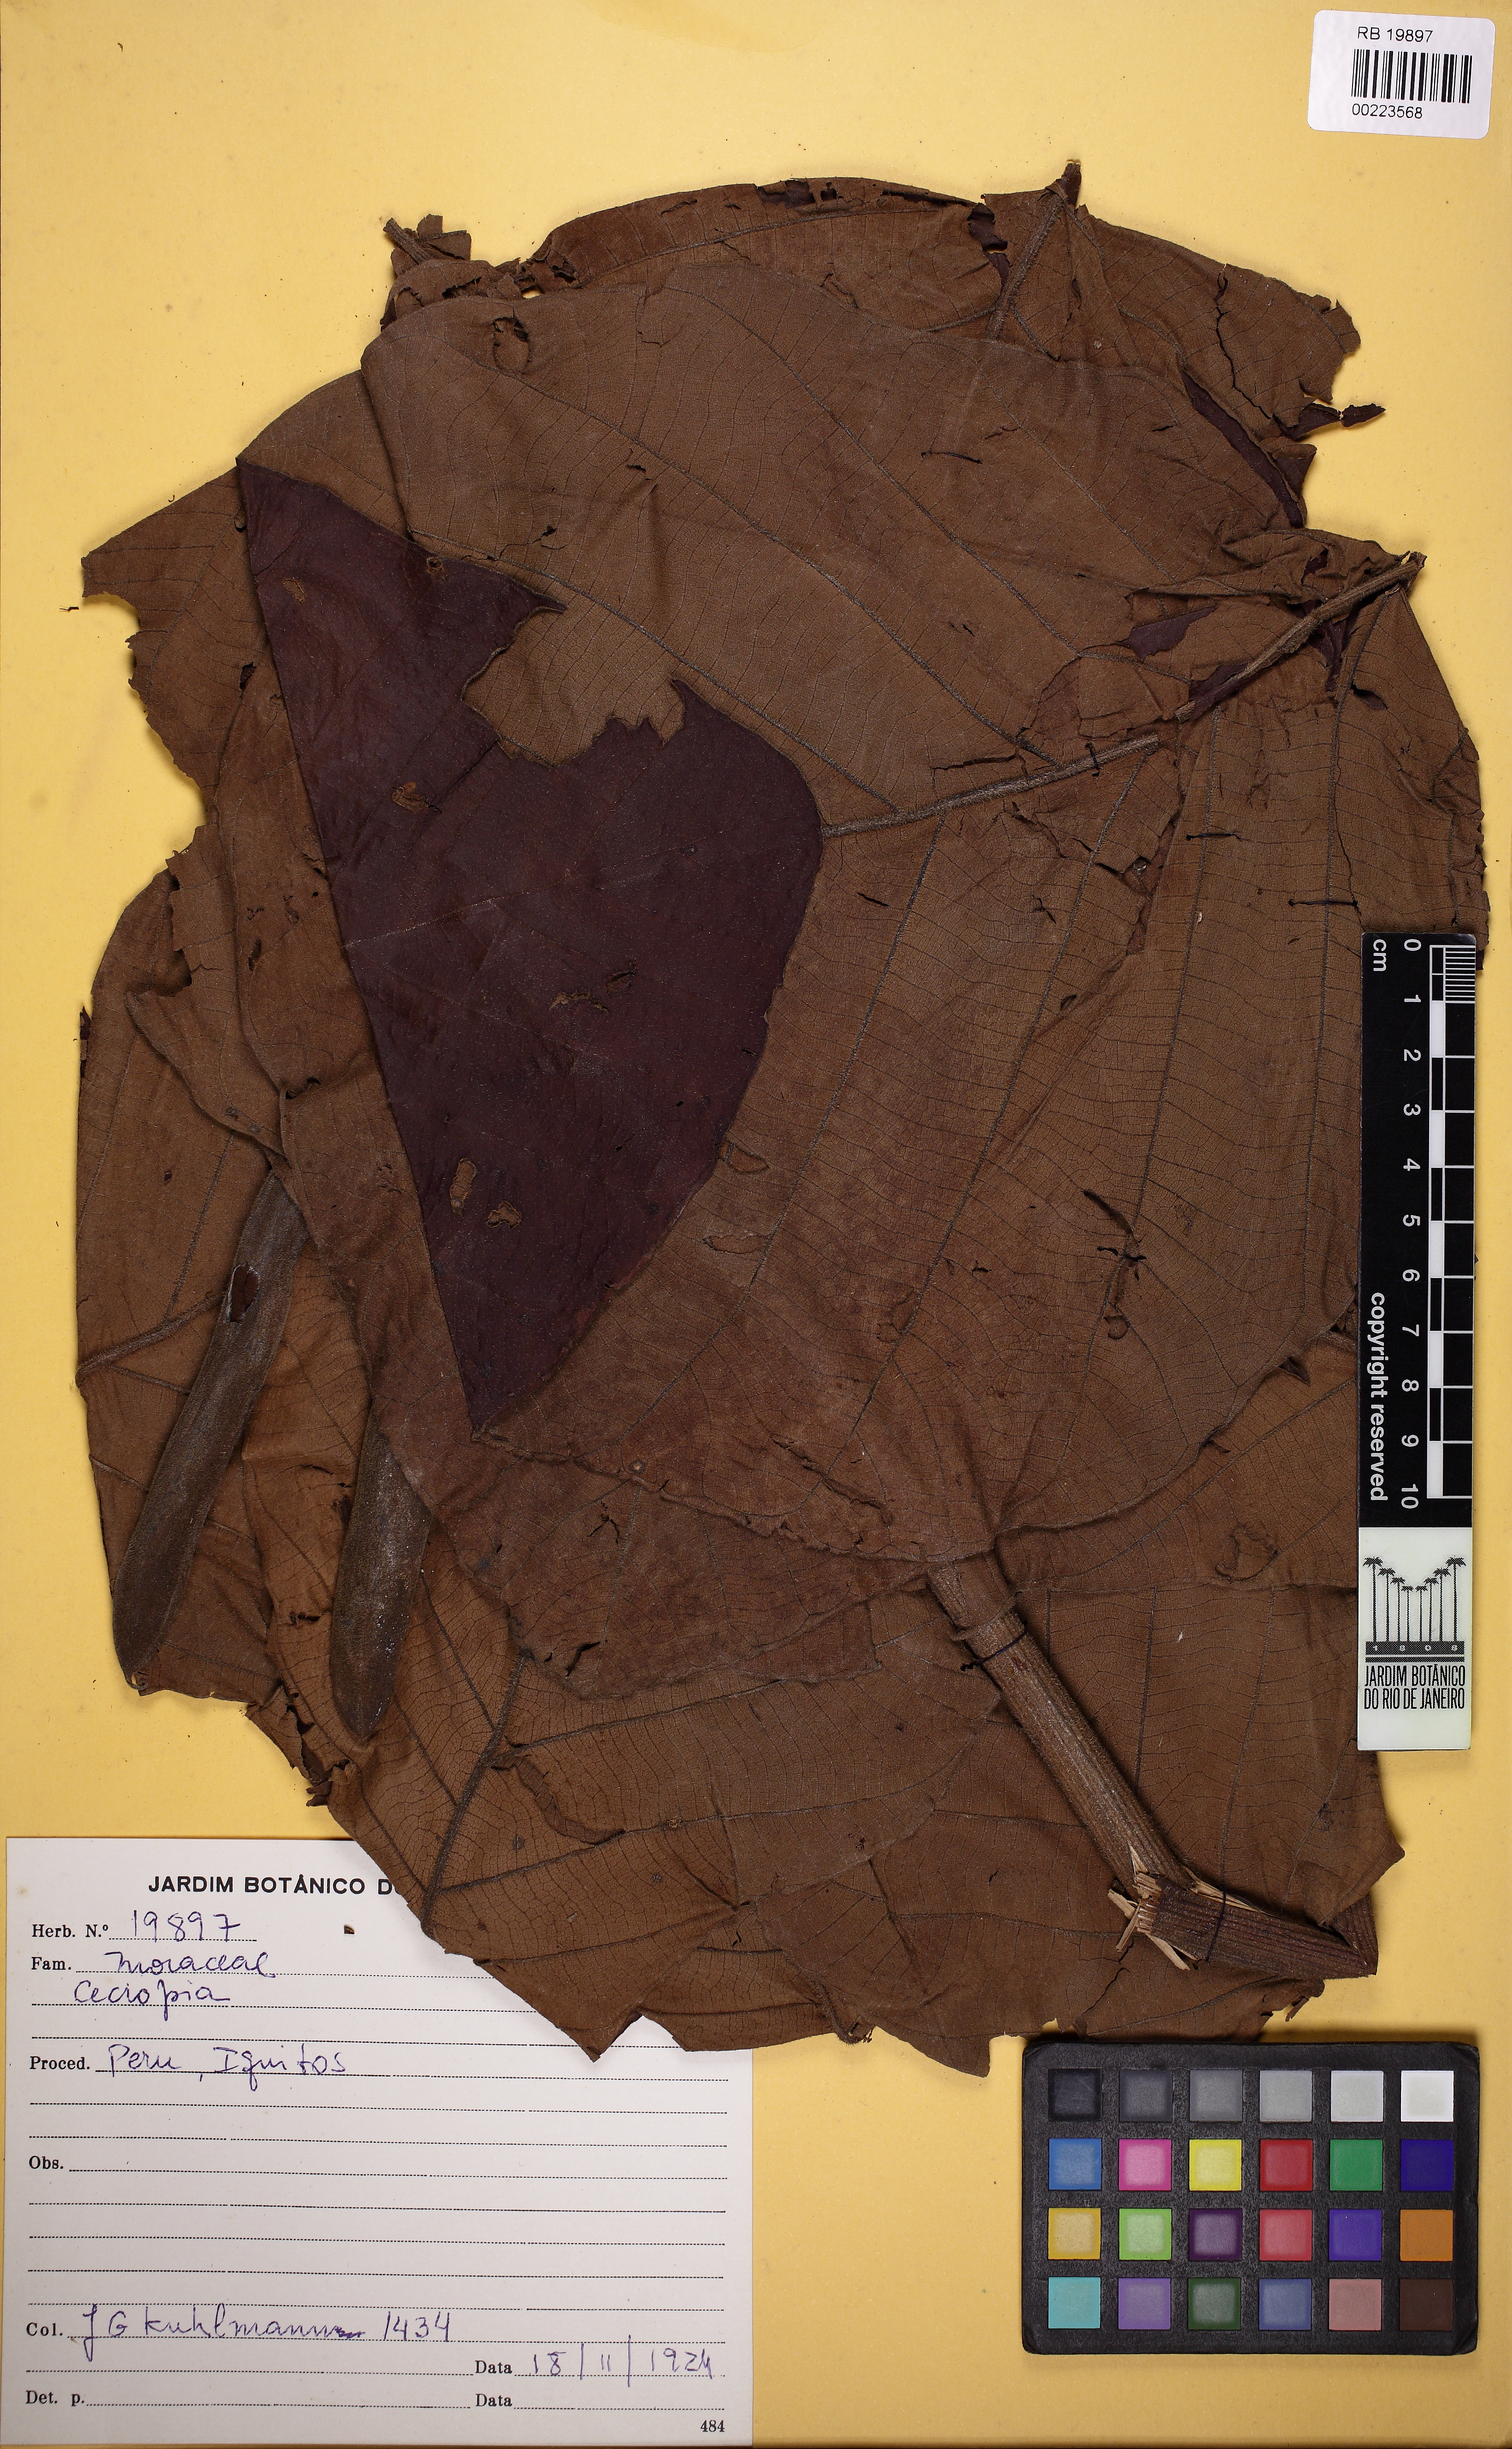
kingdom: Plantae
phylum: Tracheophyta
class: Magnoliopsida
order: Rosales
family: Urticaceae
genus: Cecropia
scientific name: Cecropia
